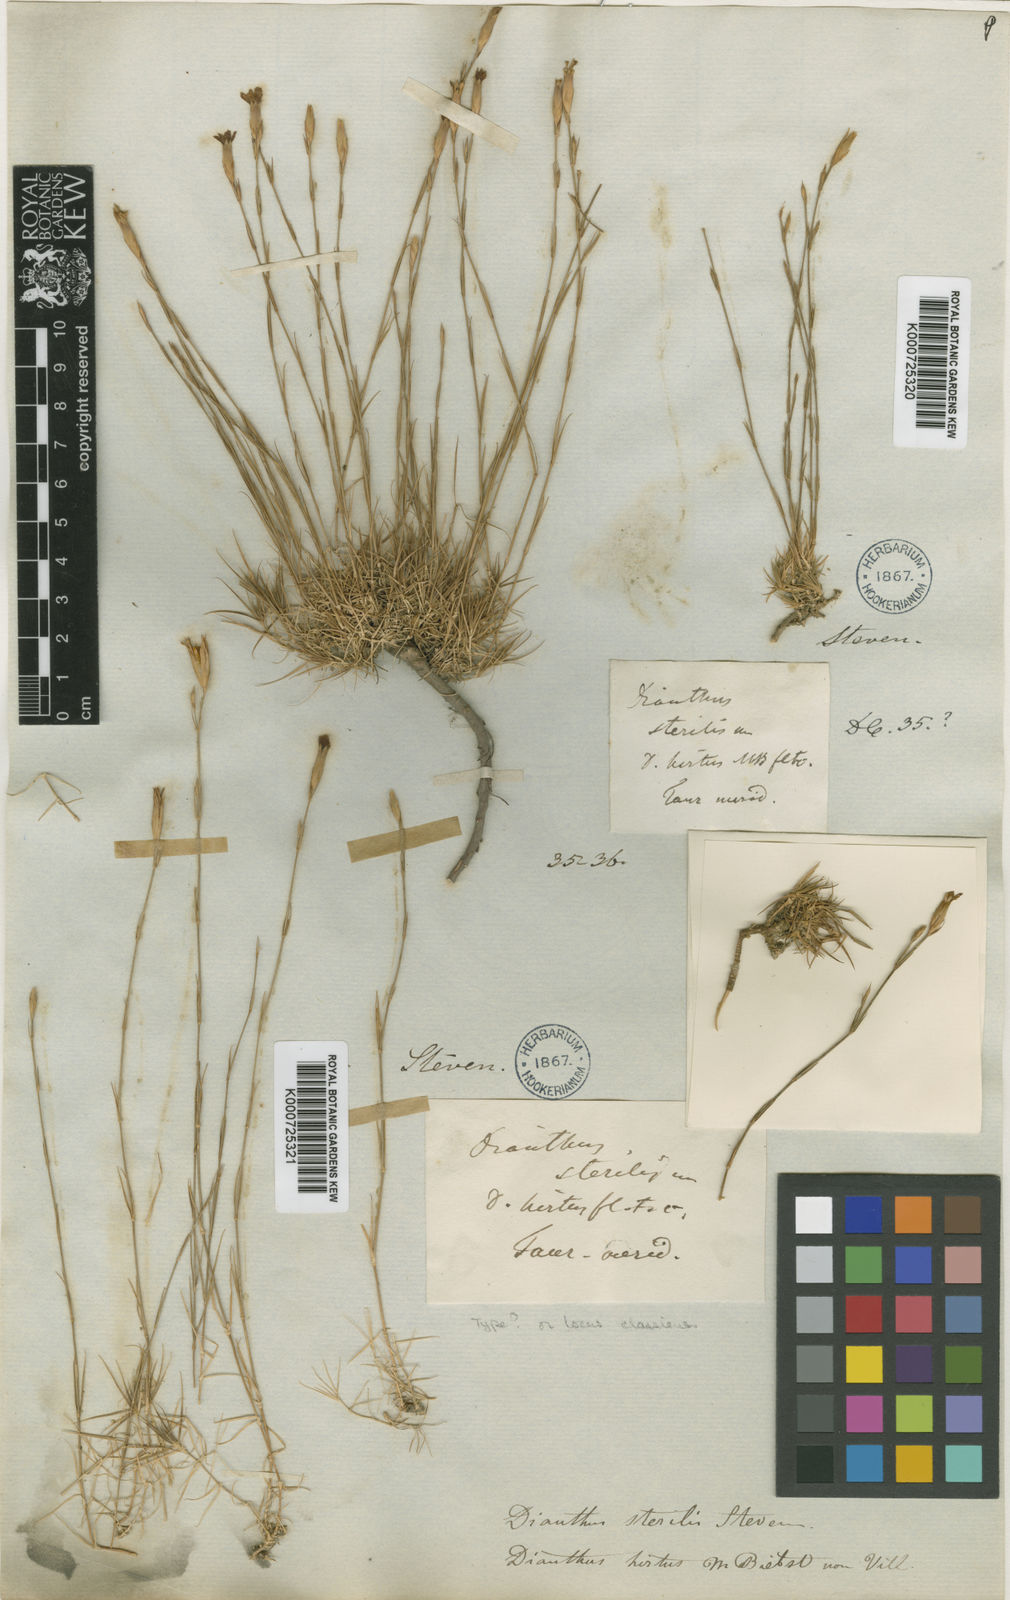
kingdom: Plantae
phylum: Tracheophyta
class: Magnoliopsida
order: Caryophyllales
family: Caryophyllaceae
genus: Dianthus
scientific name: Dianthus humilis
